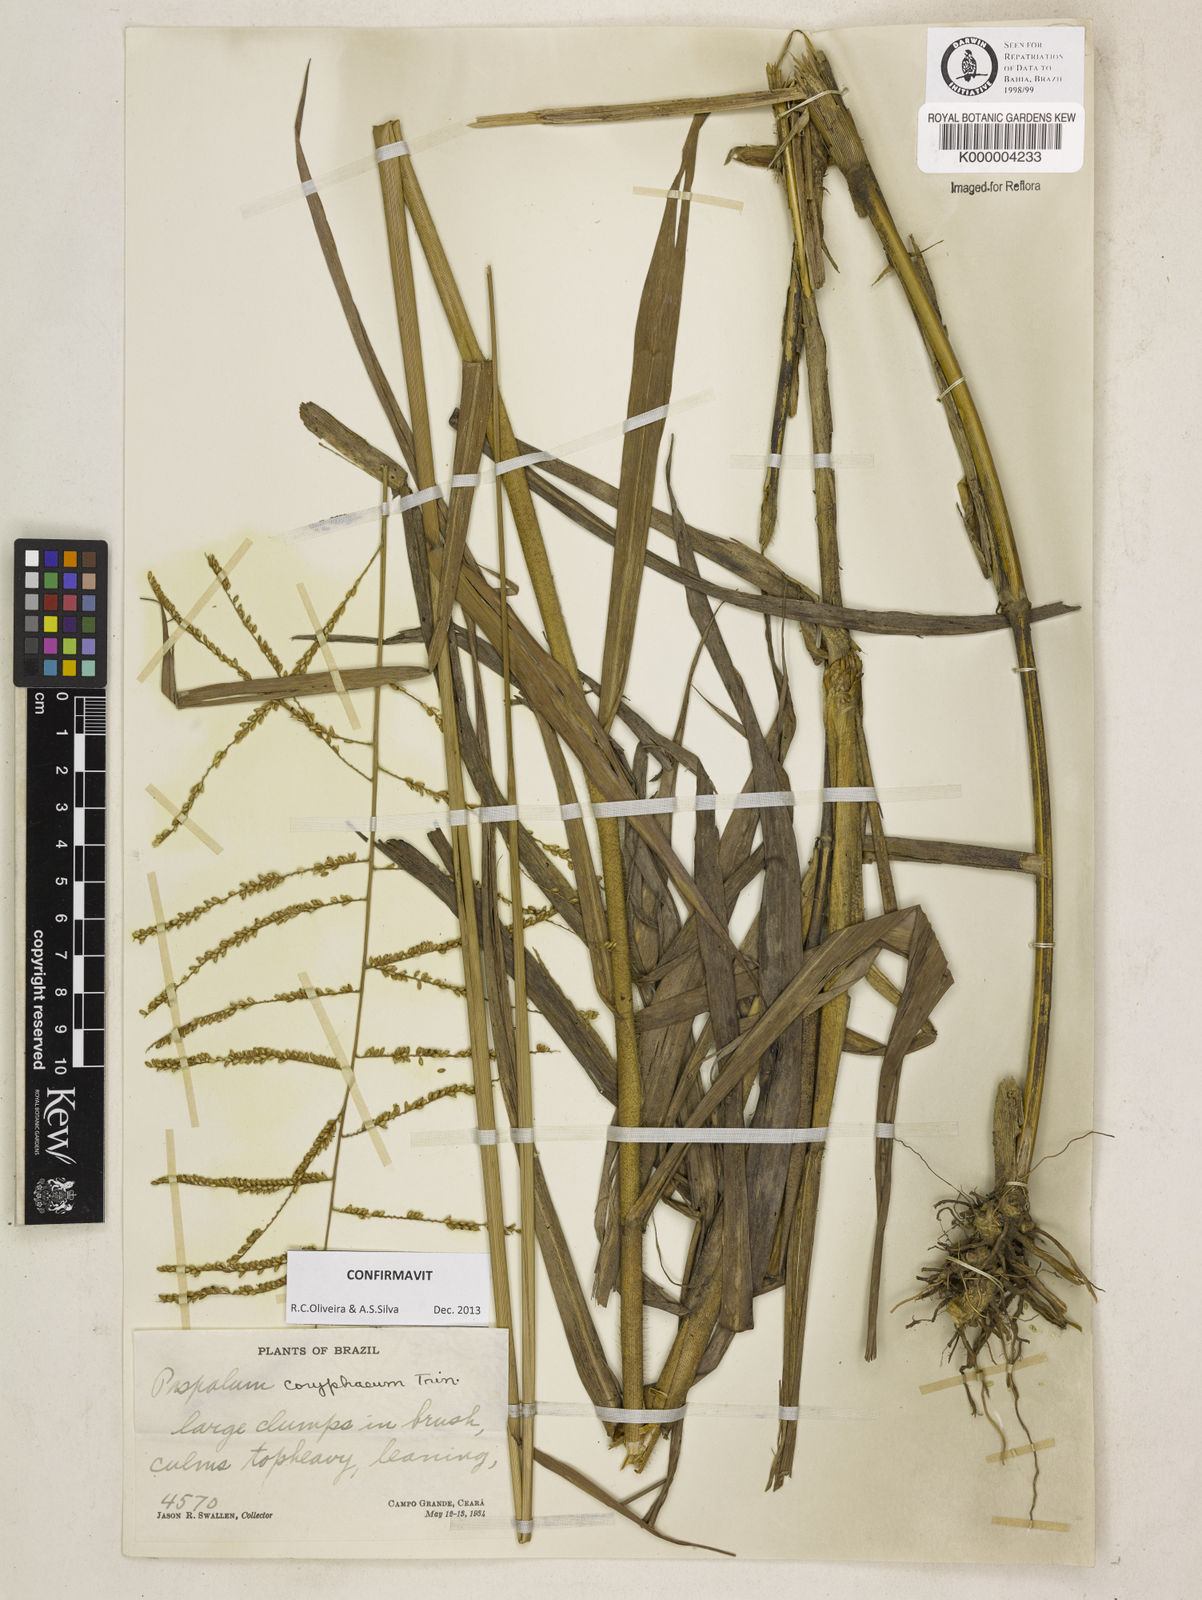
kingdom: Plantae
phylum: Tracheophyta
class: Liliopsida
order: Poales
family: Poaceae
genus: Paspalum
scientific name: Paspalum coryphaeum
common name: Emperor crowngrass
